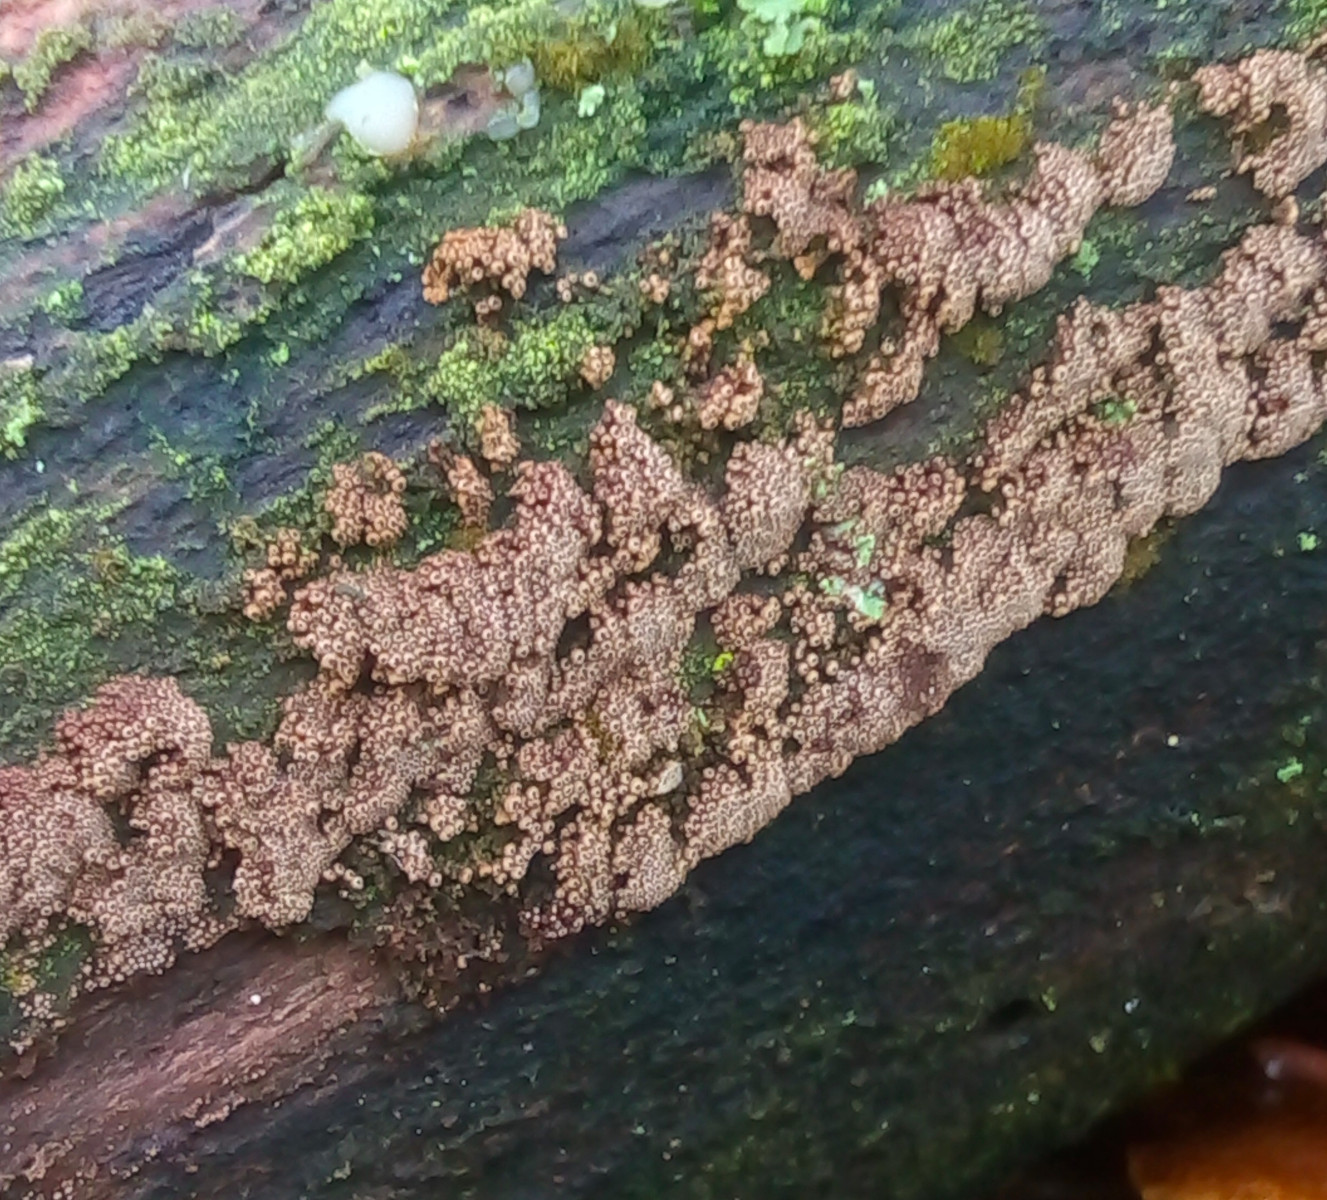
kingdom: Fungi
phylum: Basidiomycota
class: Agaricomycetes
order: Agaricales
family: Niaceae
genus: Merismodes
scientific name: Merismodes anomala
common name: almindelig læderskål
